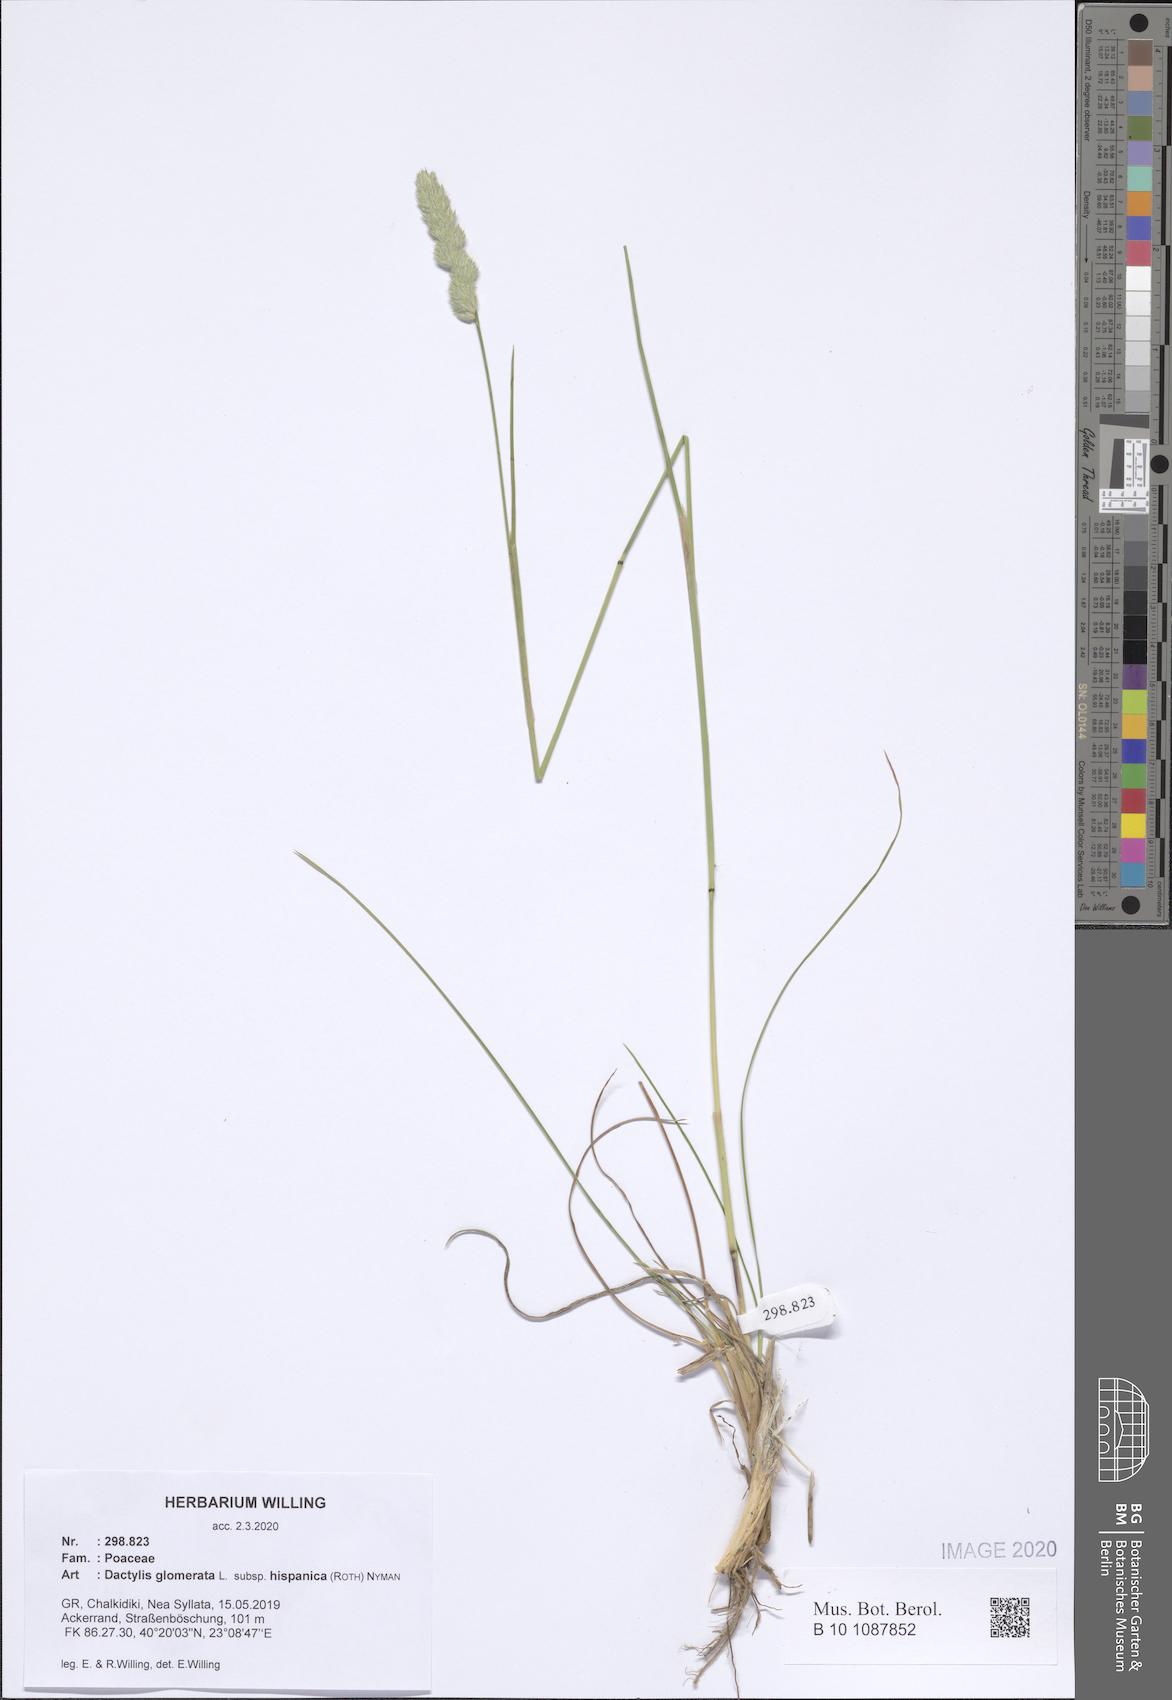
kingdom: Plantae
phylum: Tracheophyta
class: Liliopsida
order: Poales
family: Poaceae
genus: Dactylis
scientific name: Dactylis glomerata
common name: Orchardgrass
